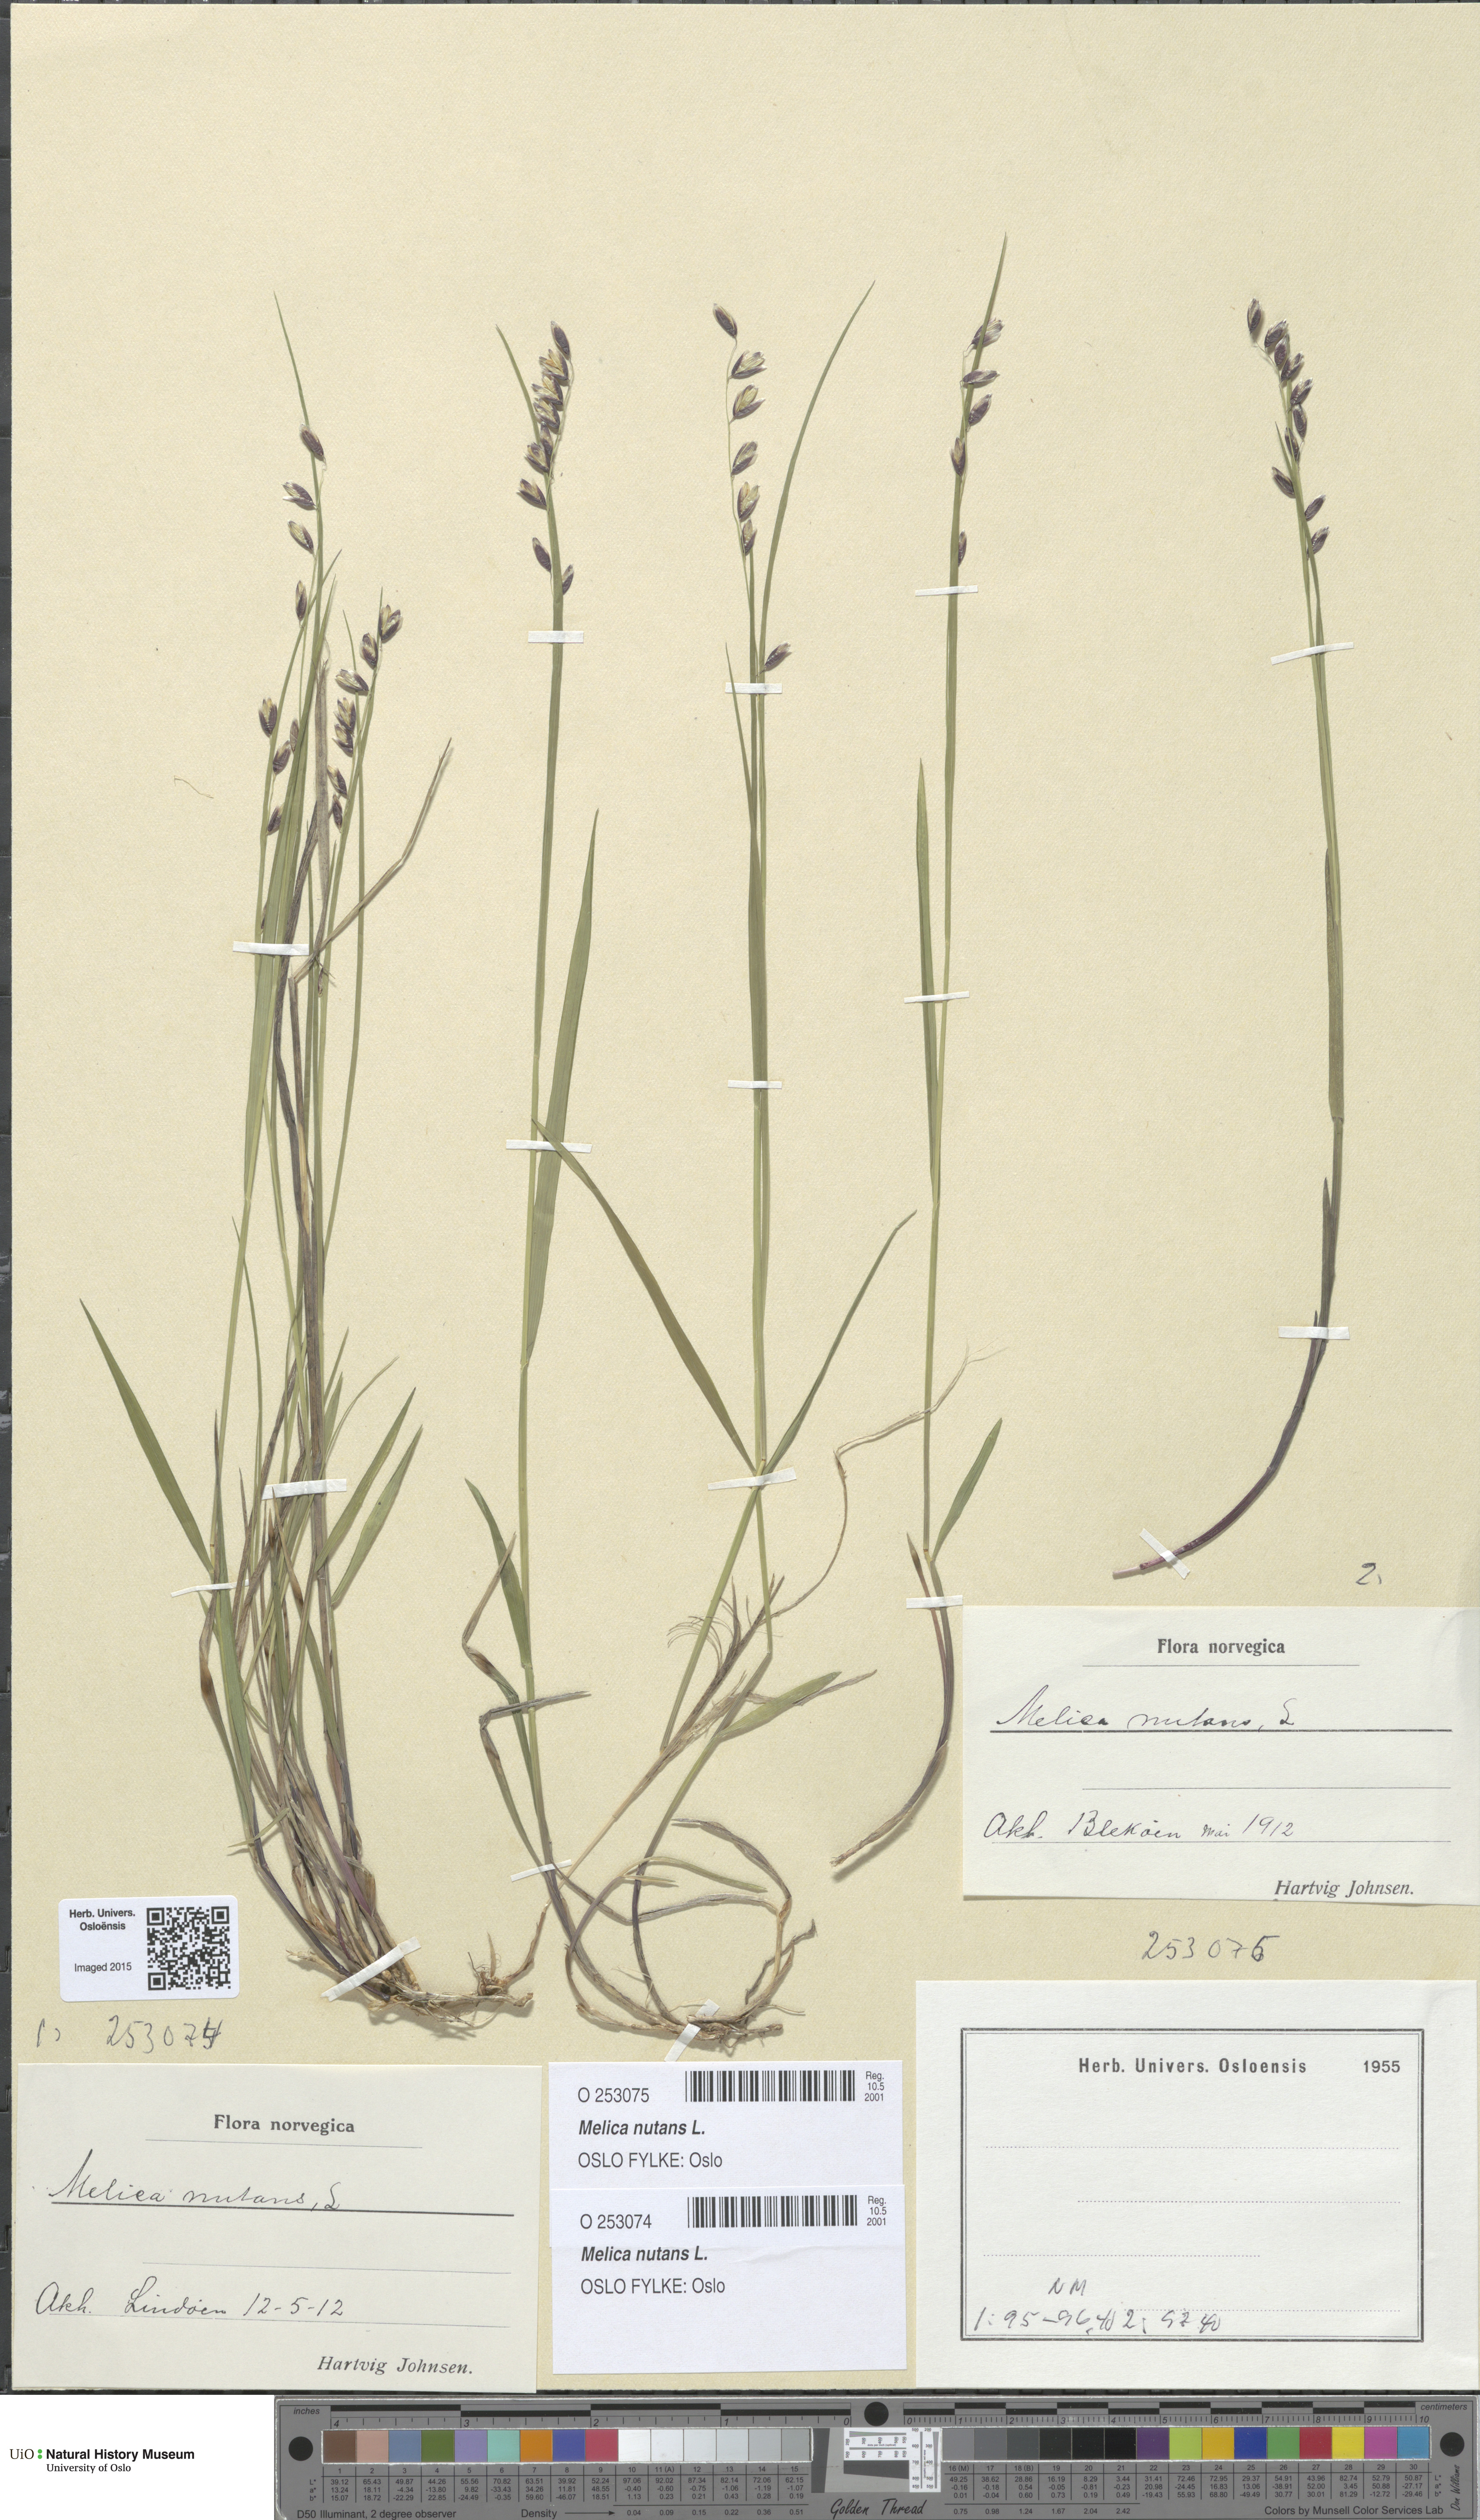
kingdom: Plantae
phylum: Tracheophyta
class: Liliopsida
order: Poales
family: Poaceae
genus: Melica
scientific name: Melica nutans
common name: Mountain melick
